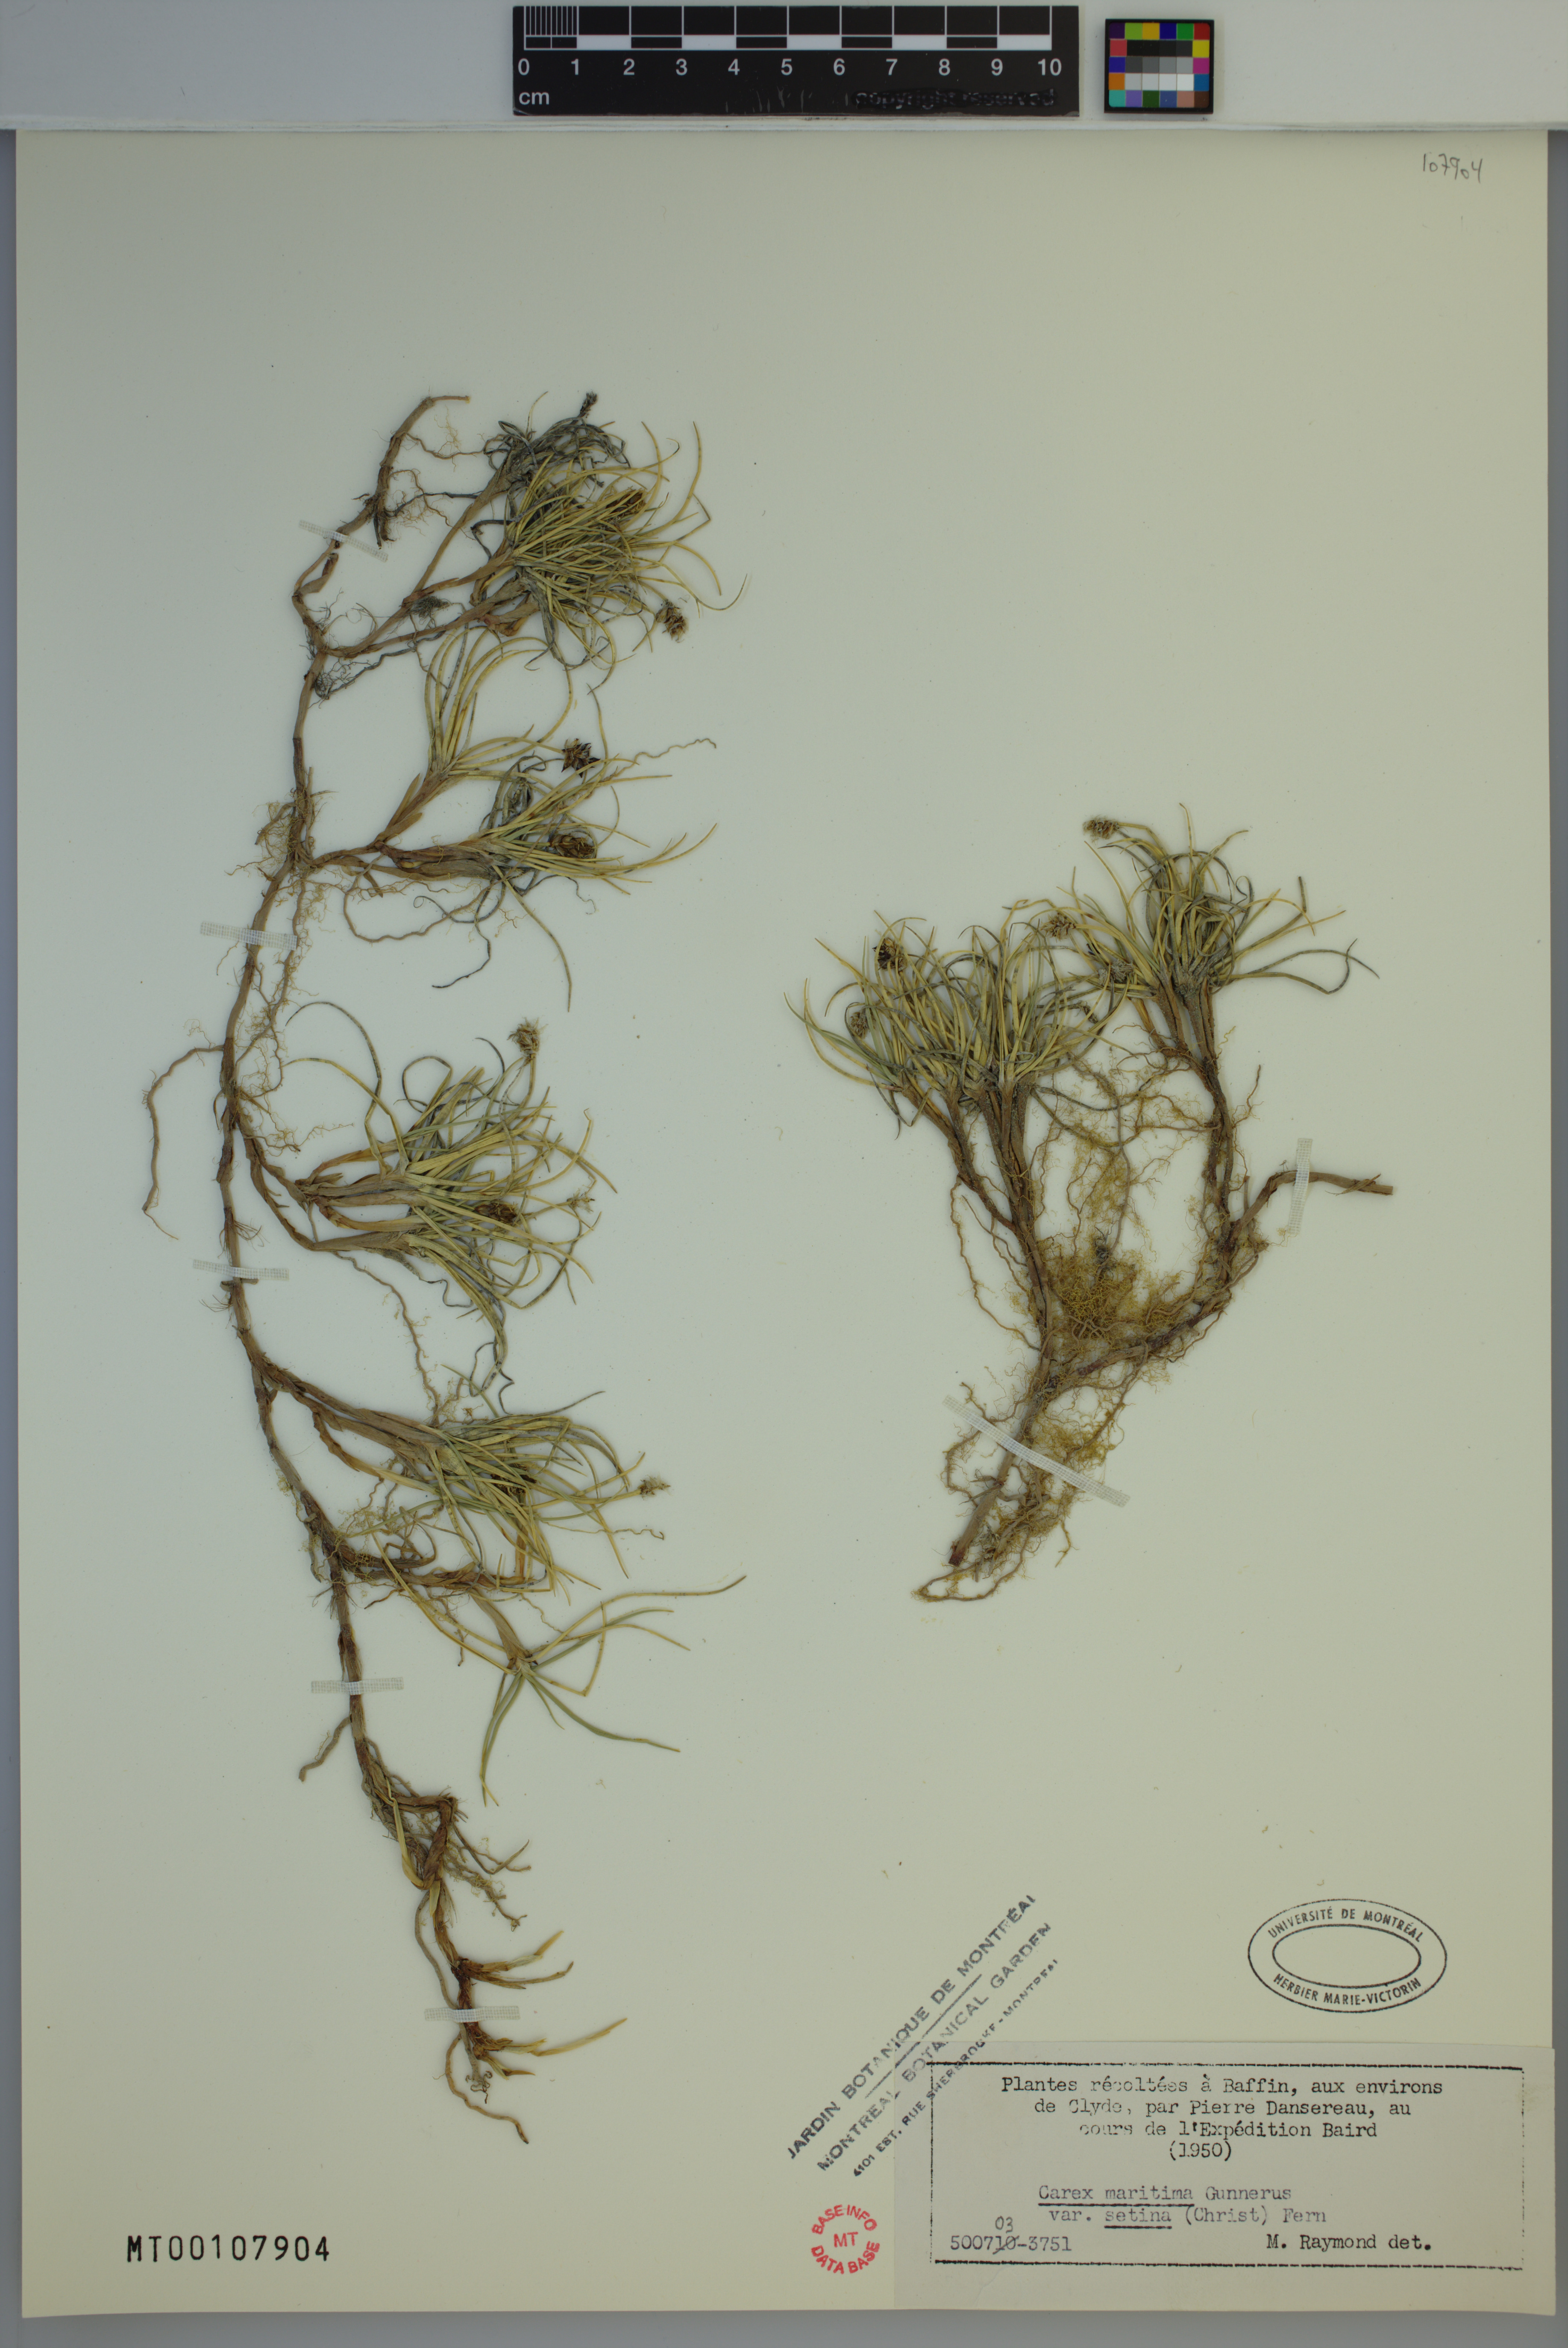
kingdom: Plantae
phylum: Tracheophyta
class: Liliopsida
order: Poales
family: Cyperaceae
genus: Carex
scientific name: Carex maritima
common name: Curved sedge
